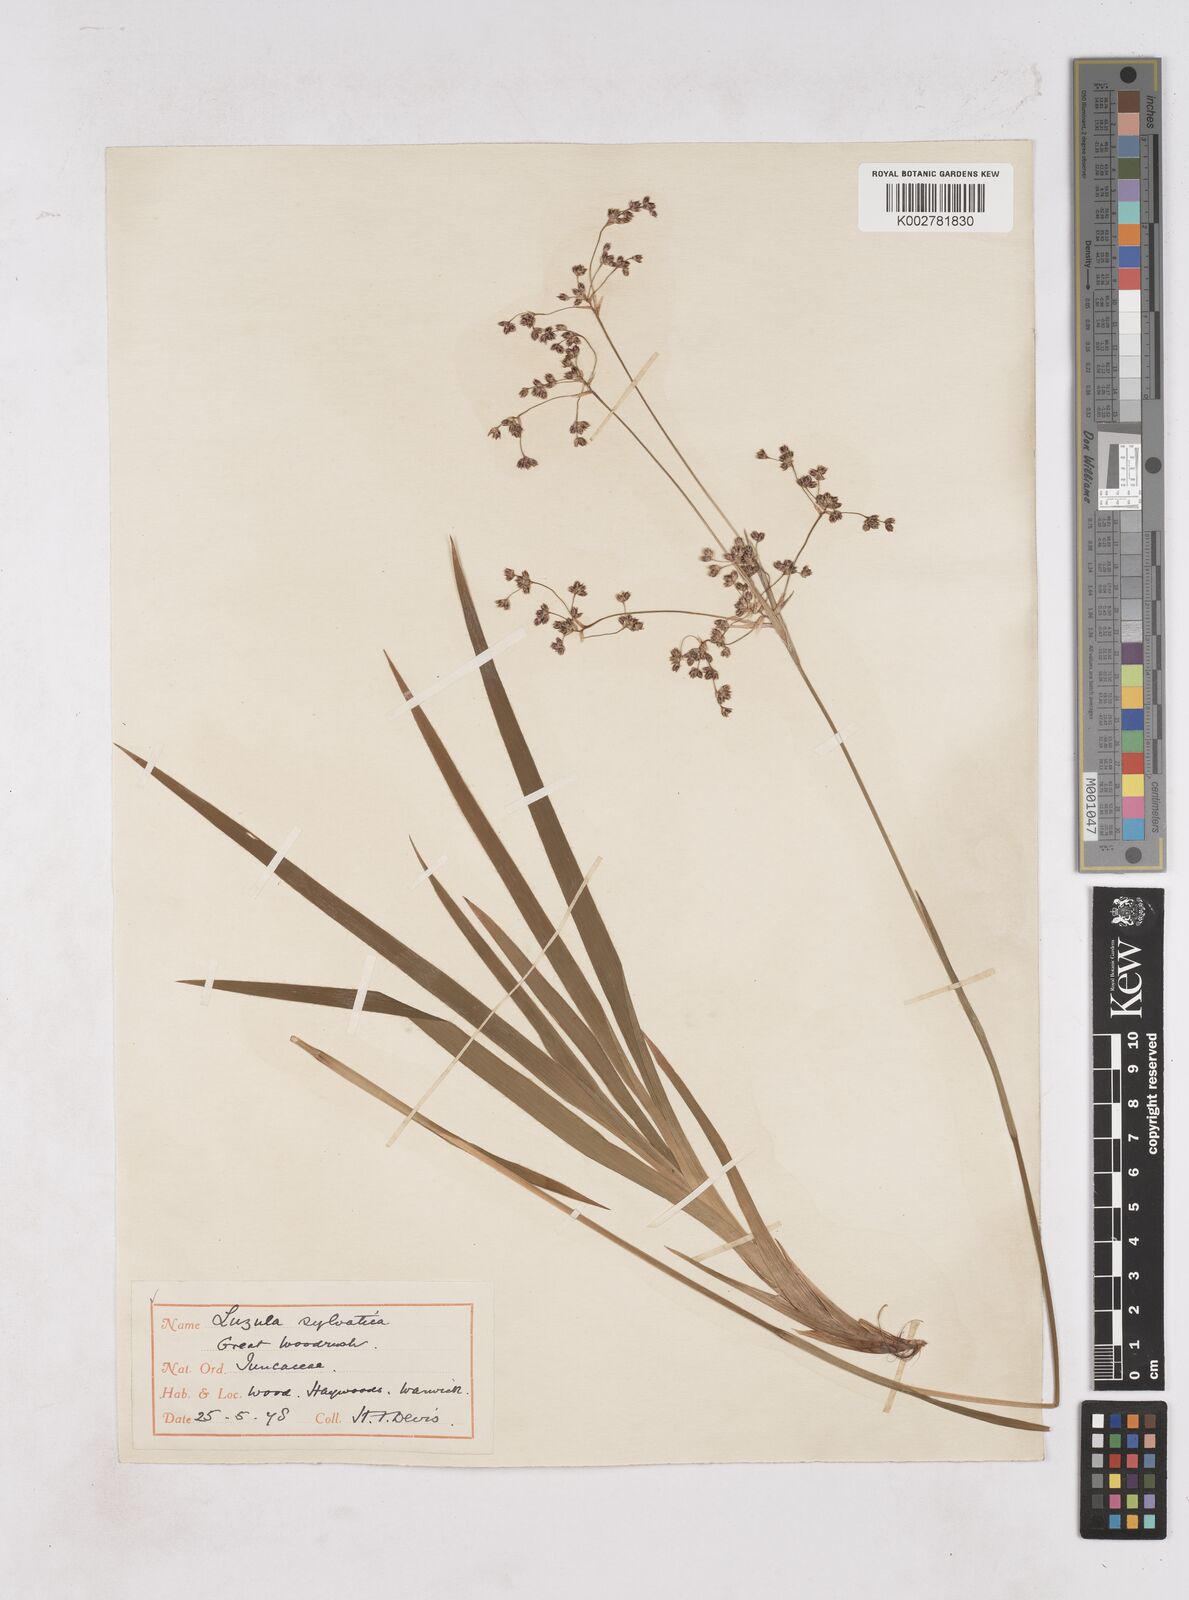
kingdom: Plantae
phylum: Tracheophyta
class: Liliopsida
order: Poales
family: Juncaceae
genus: Luzula
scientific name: Luzula sylvatica
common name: Great wood-rush
